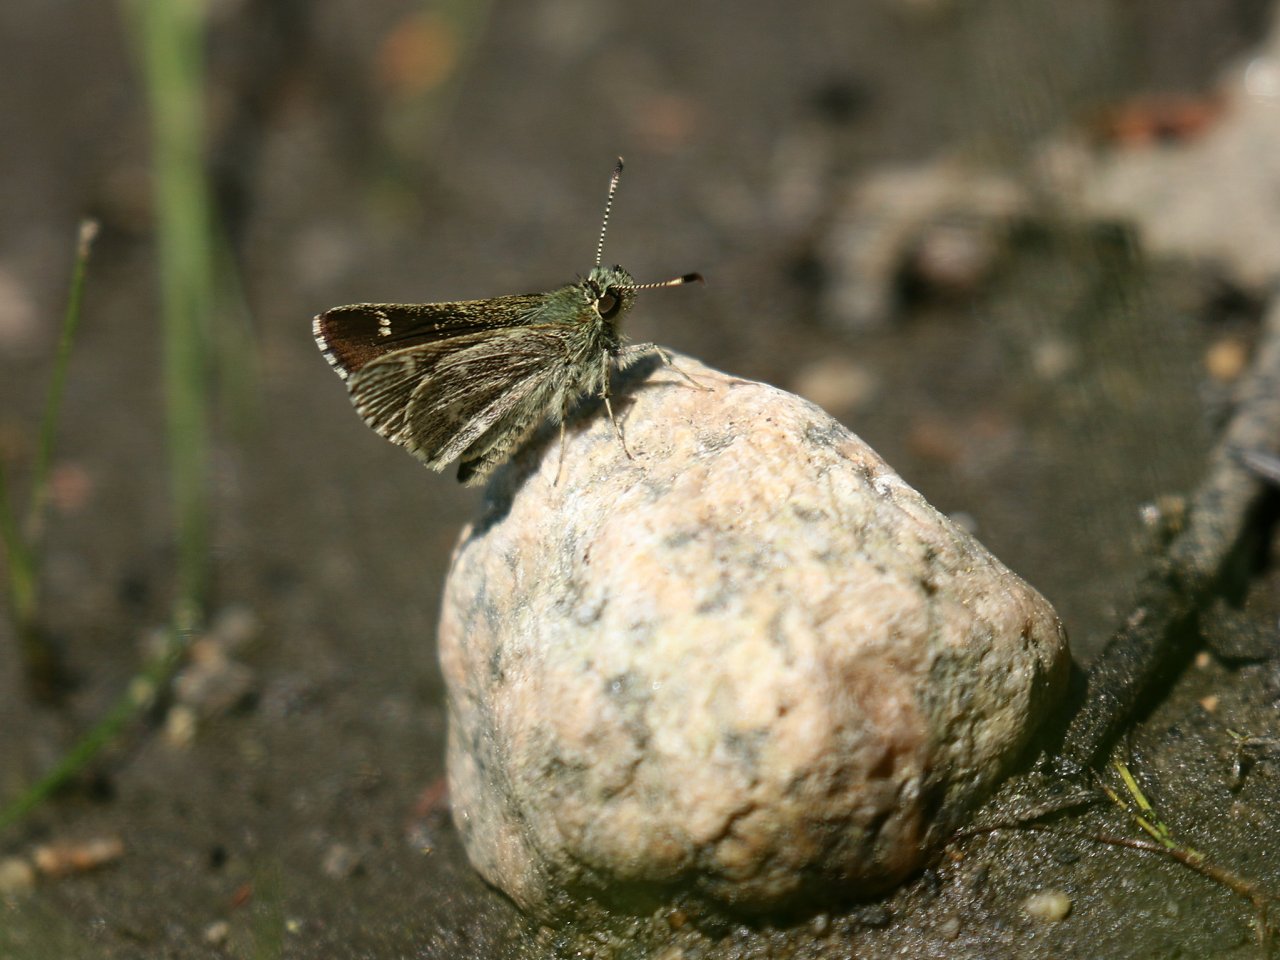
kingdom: Animalia
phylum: Arthropoda
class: Insecta
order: Lepidoptera
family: Hesperiidae
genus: Mastor
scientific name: Mastor hegon
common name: Pepper and Salt Skipper
